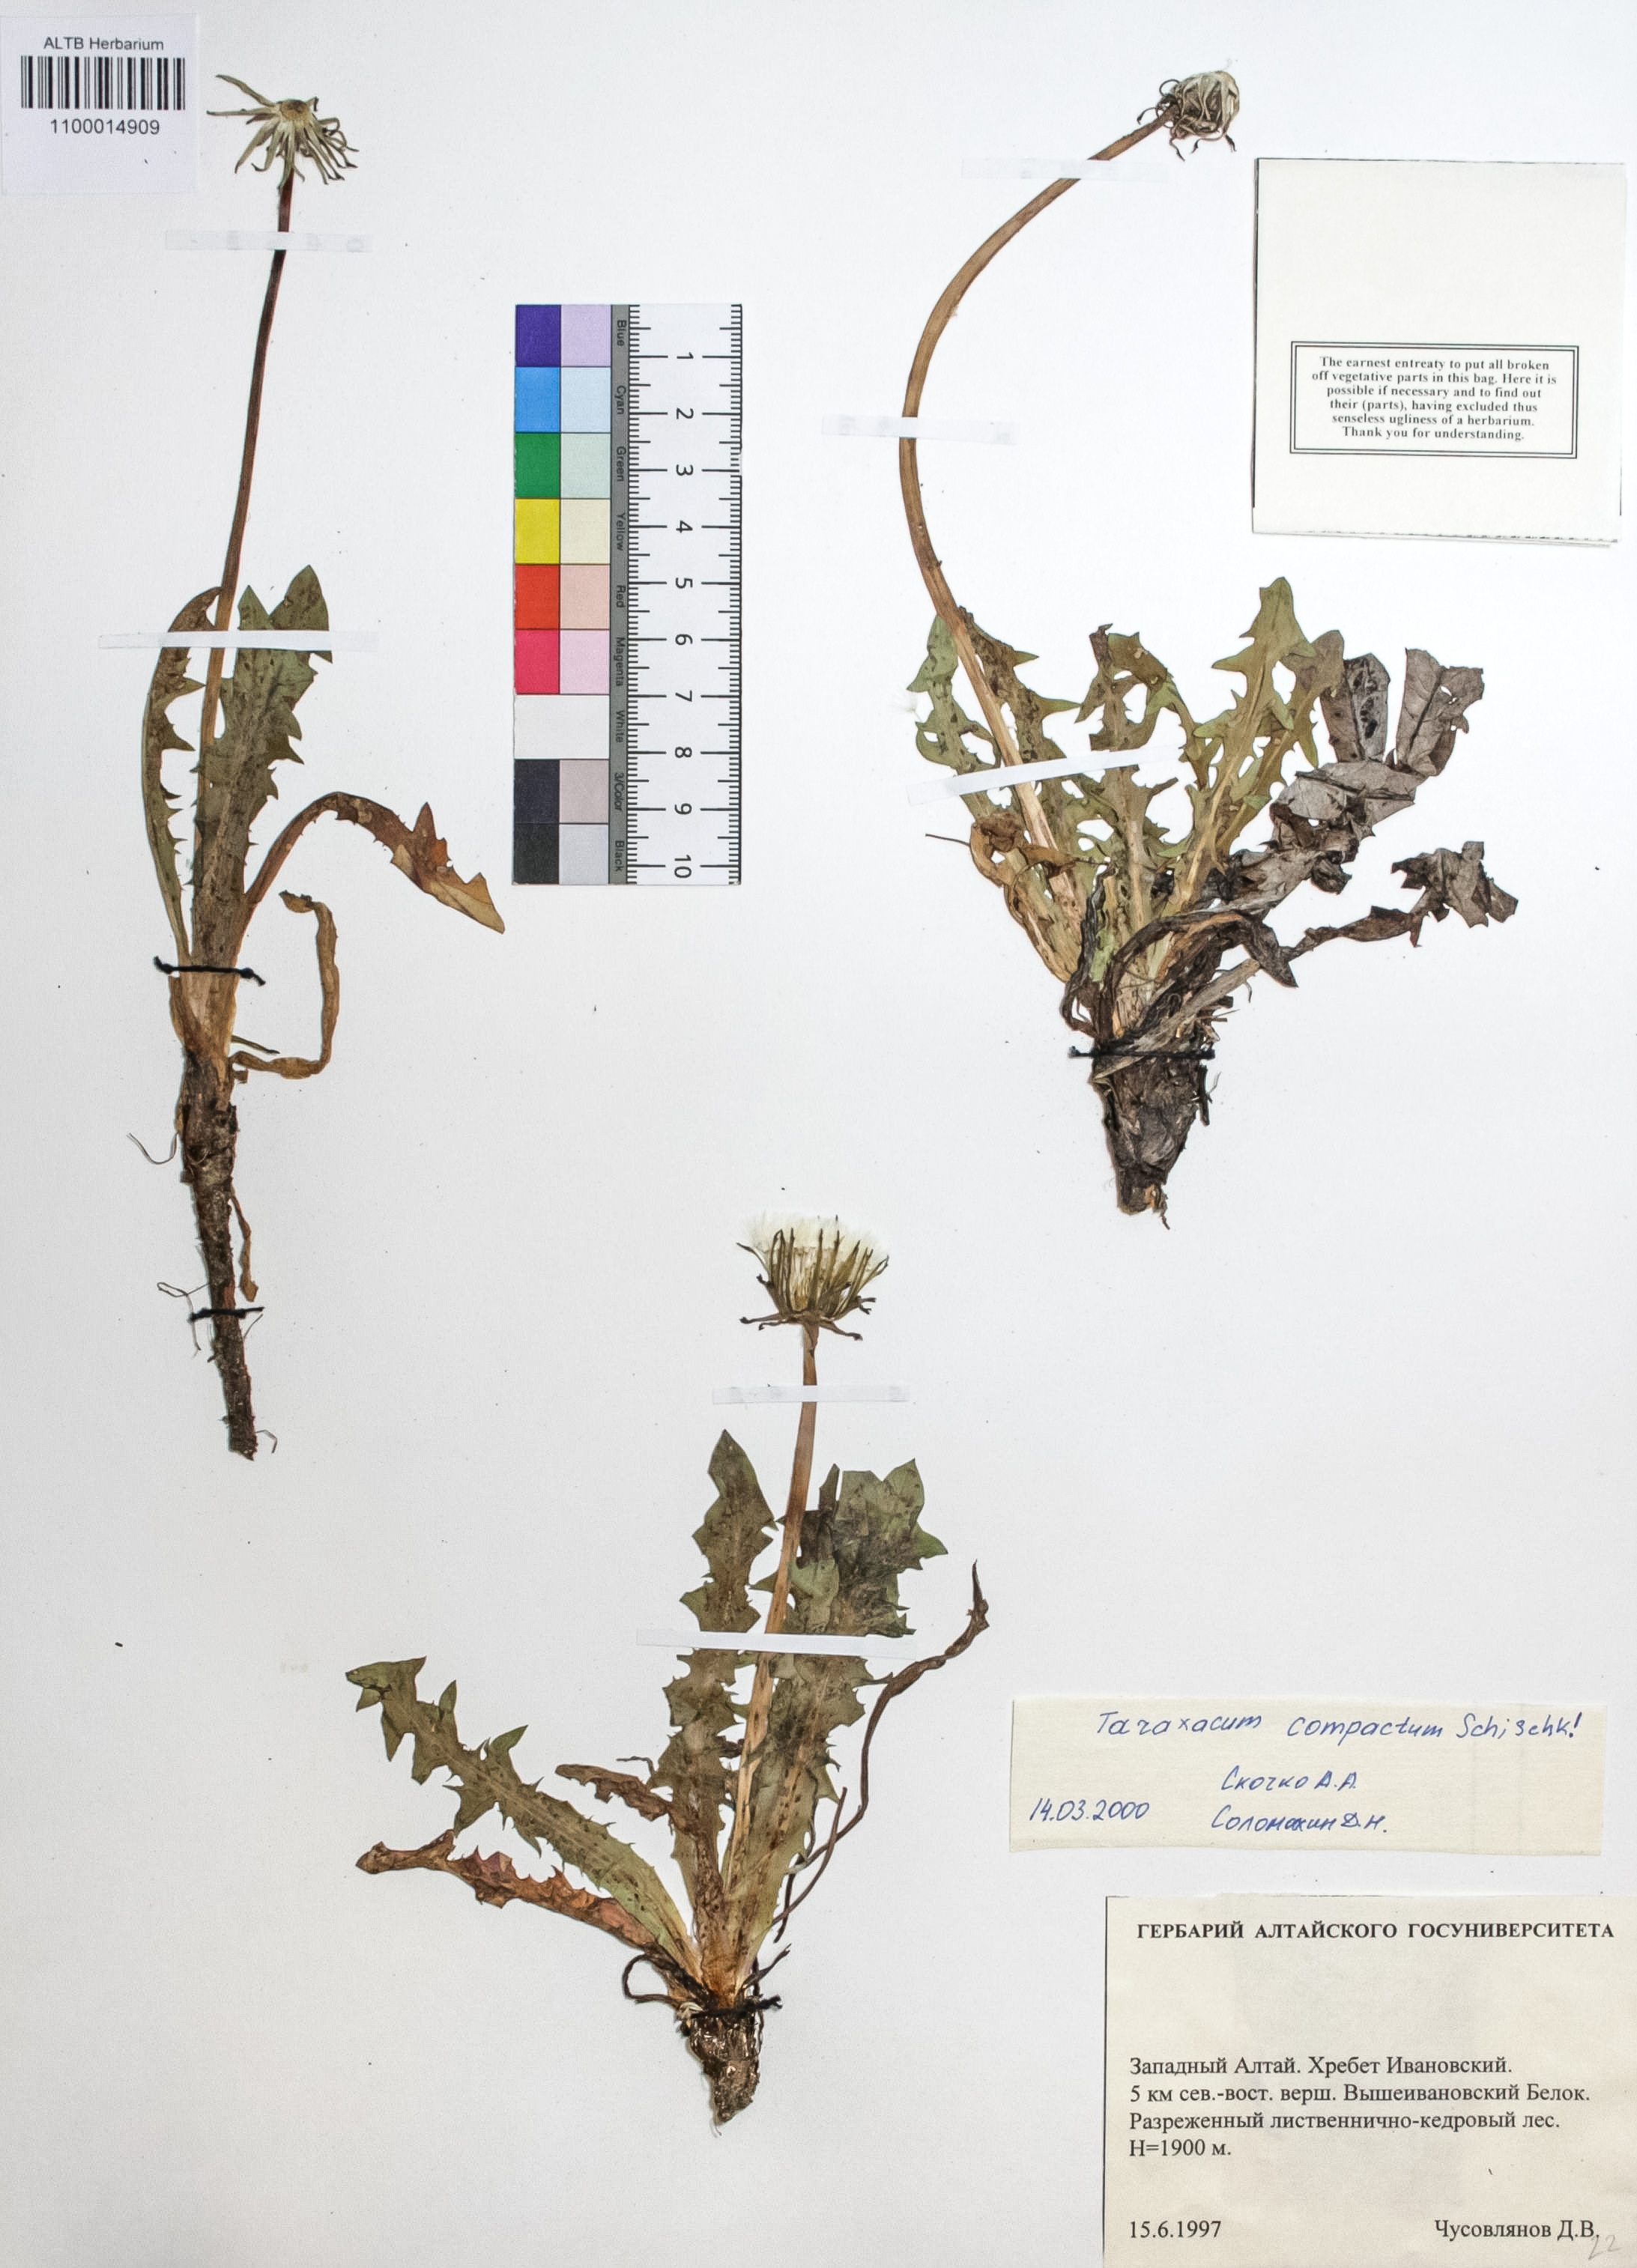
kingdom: Plantae
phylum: Tracheophyta
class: Magnoliopsida
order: Asterales
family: Asteraceae
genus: Taraxacum
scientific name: Taraxacum microspermum
